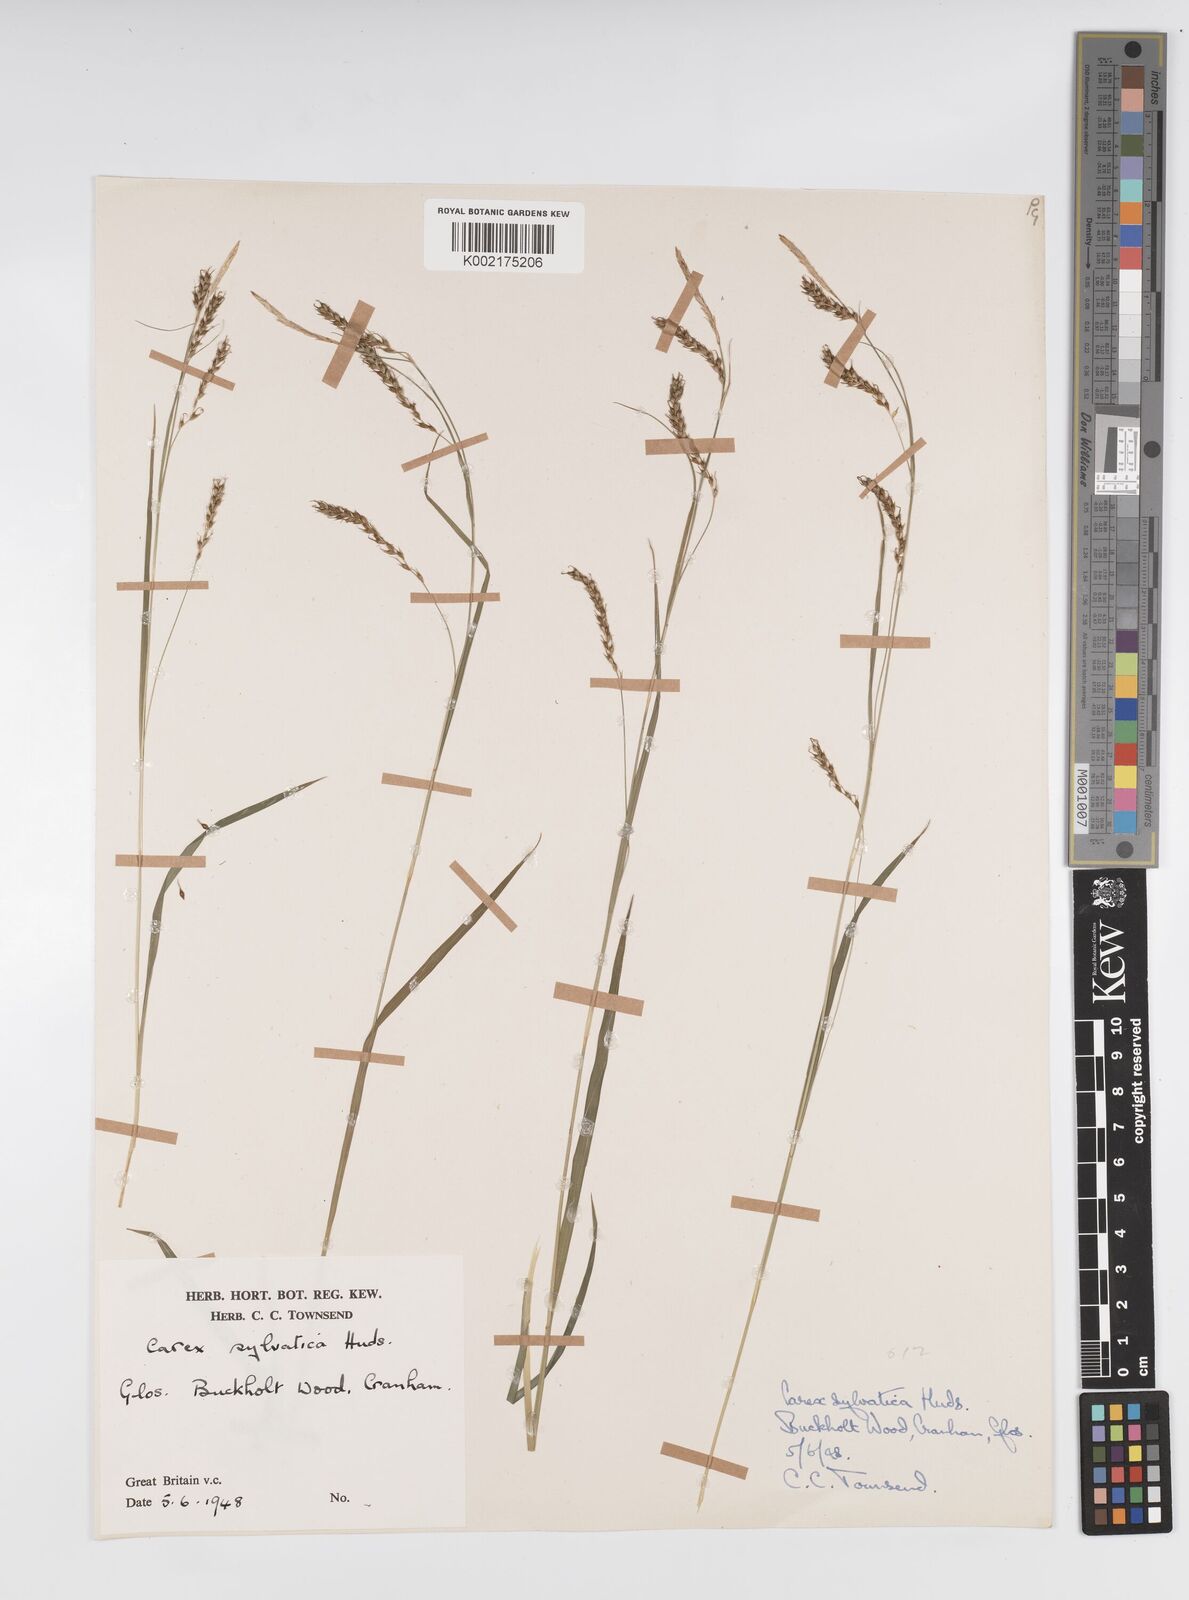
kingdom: Plantae
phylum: Tracheophyta
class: Liliopsida
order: Poales
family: Cyperaceae
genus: Carex
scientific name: Carex sylvatica
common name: Wood-sedge
